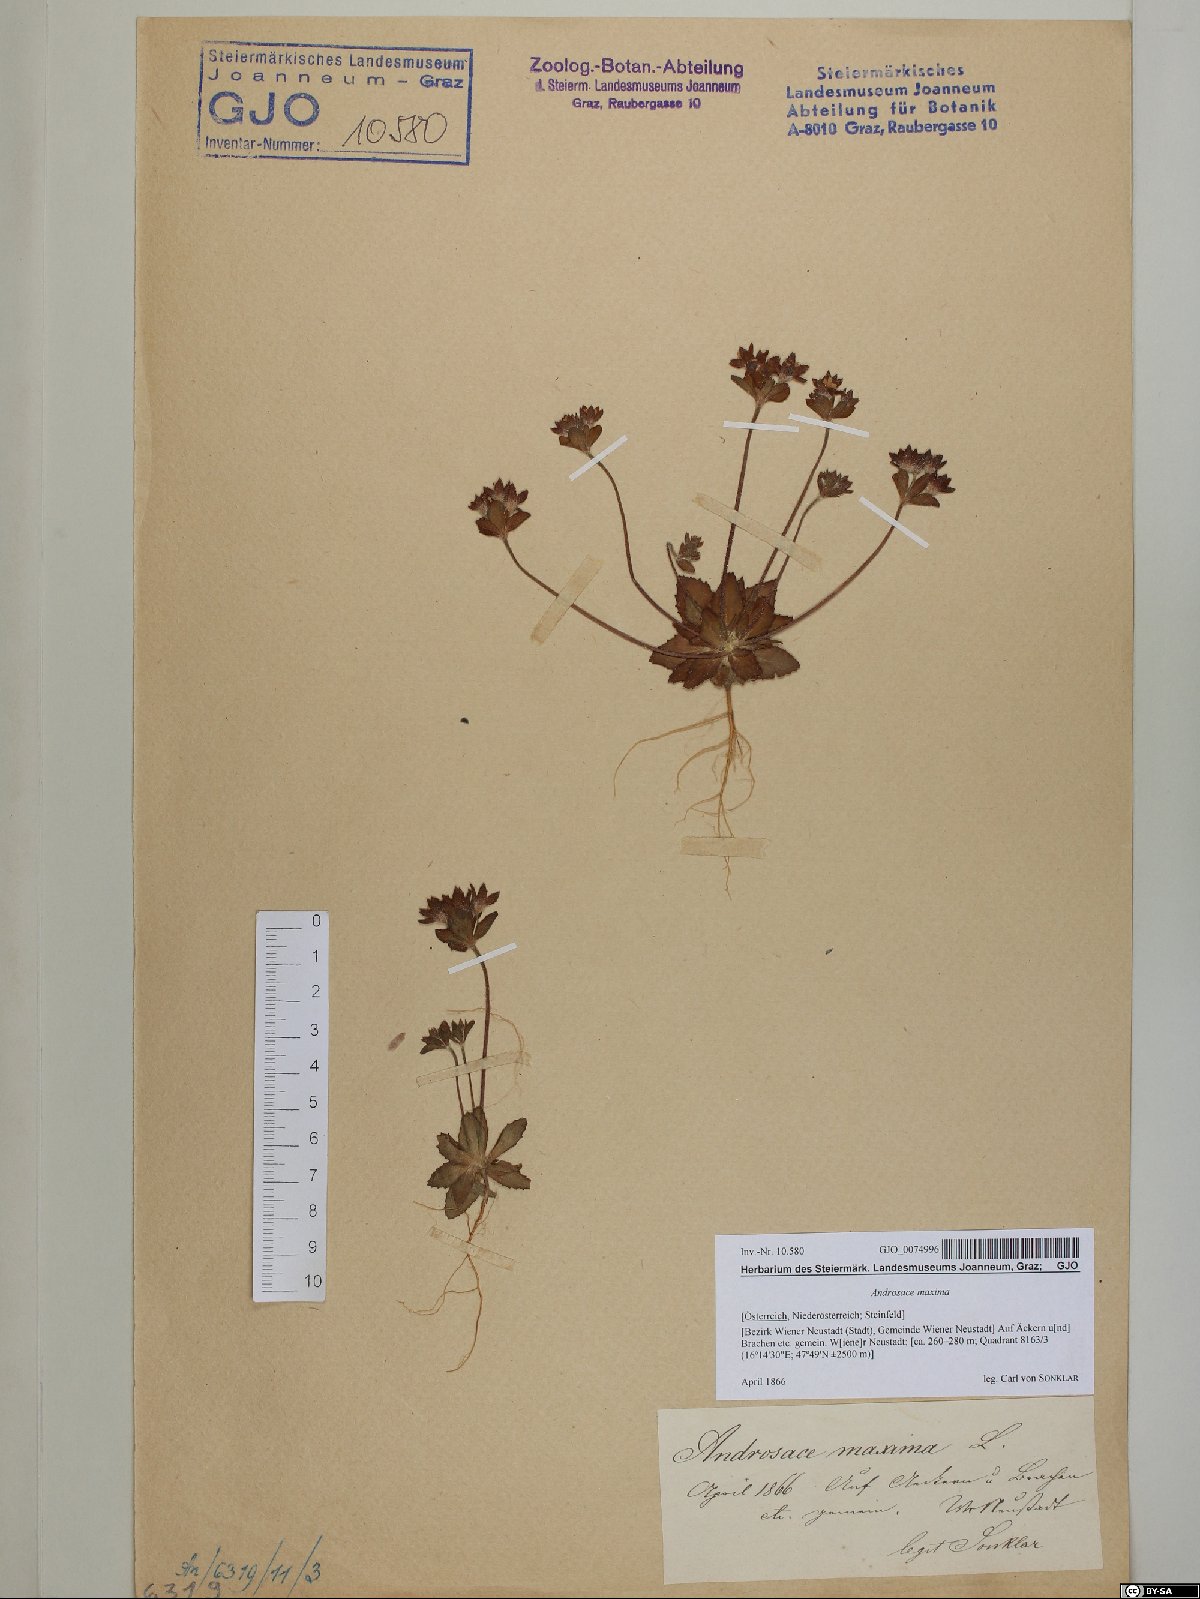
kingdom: Plantae
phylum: Tracheophyta
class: Magnoliopsida
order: Ericales
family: Primulaceae
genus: Androsace
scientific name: Androsace maxima
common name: Annual androsace
